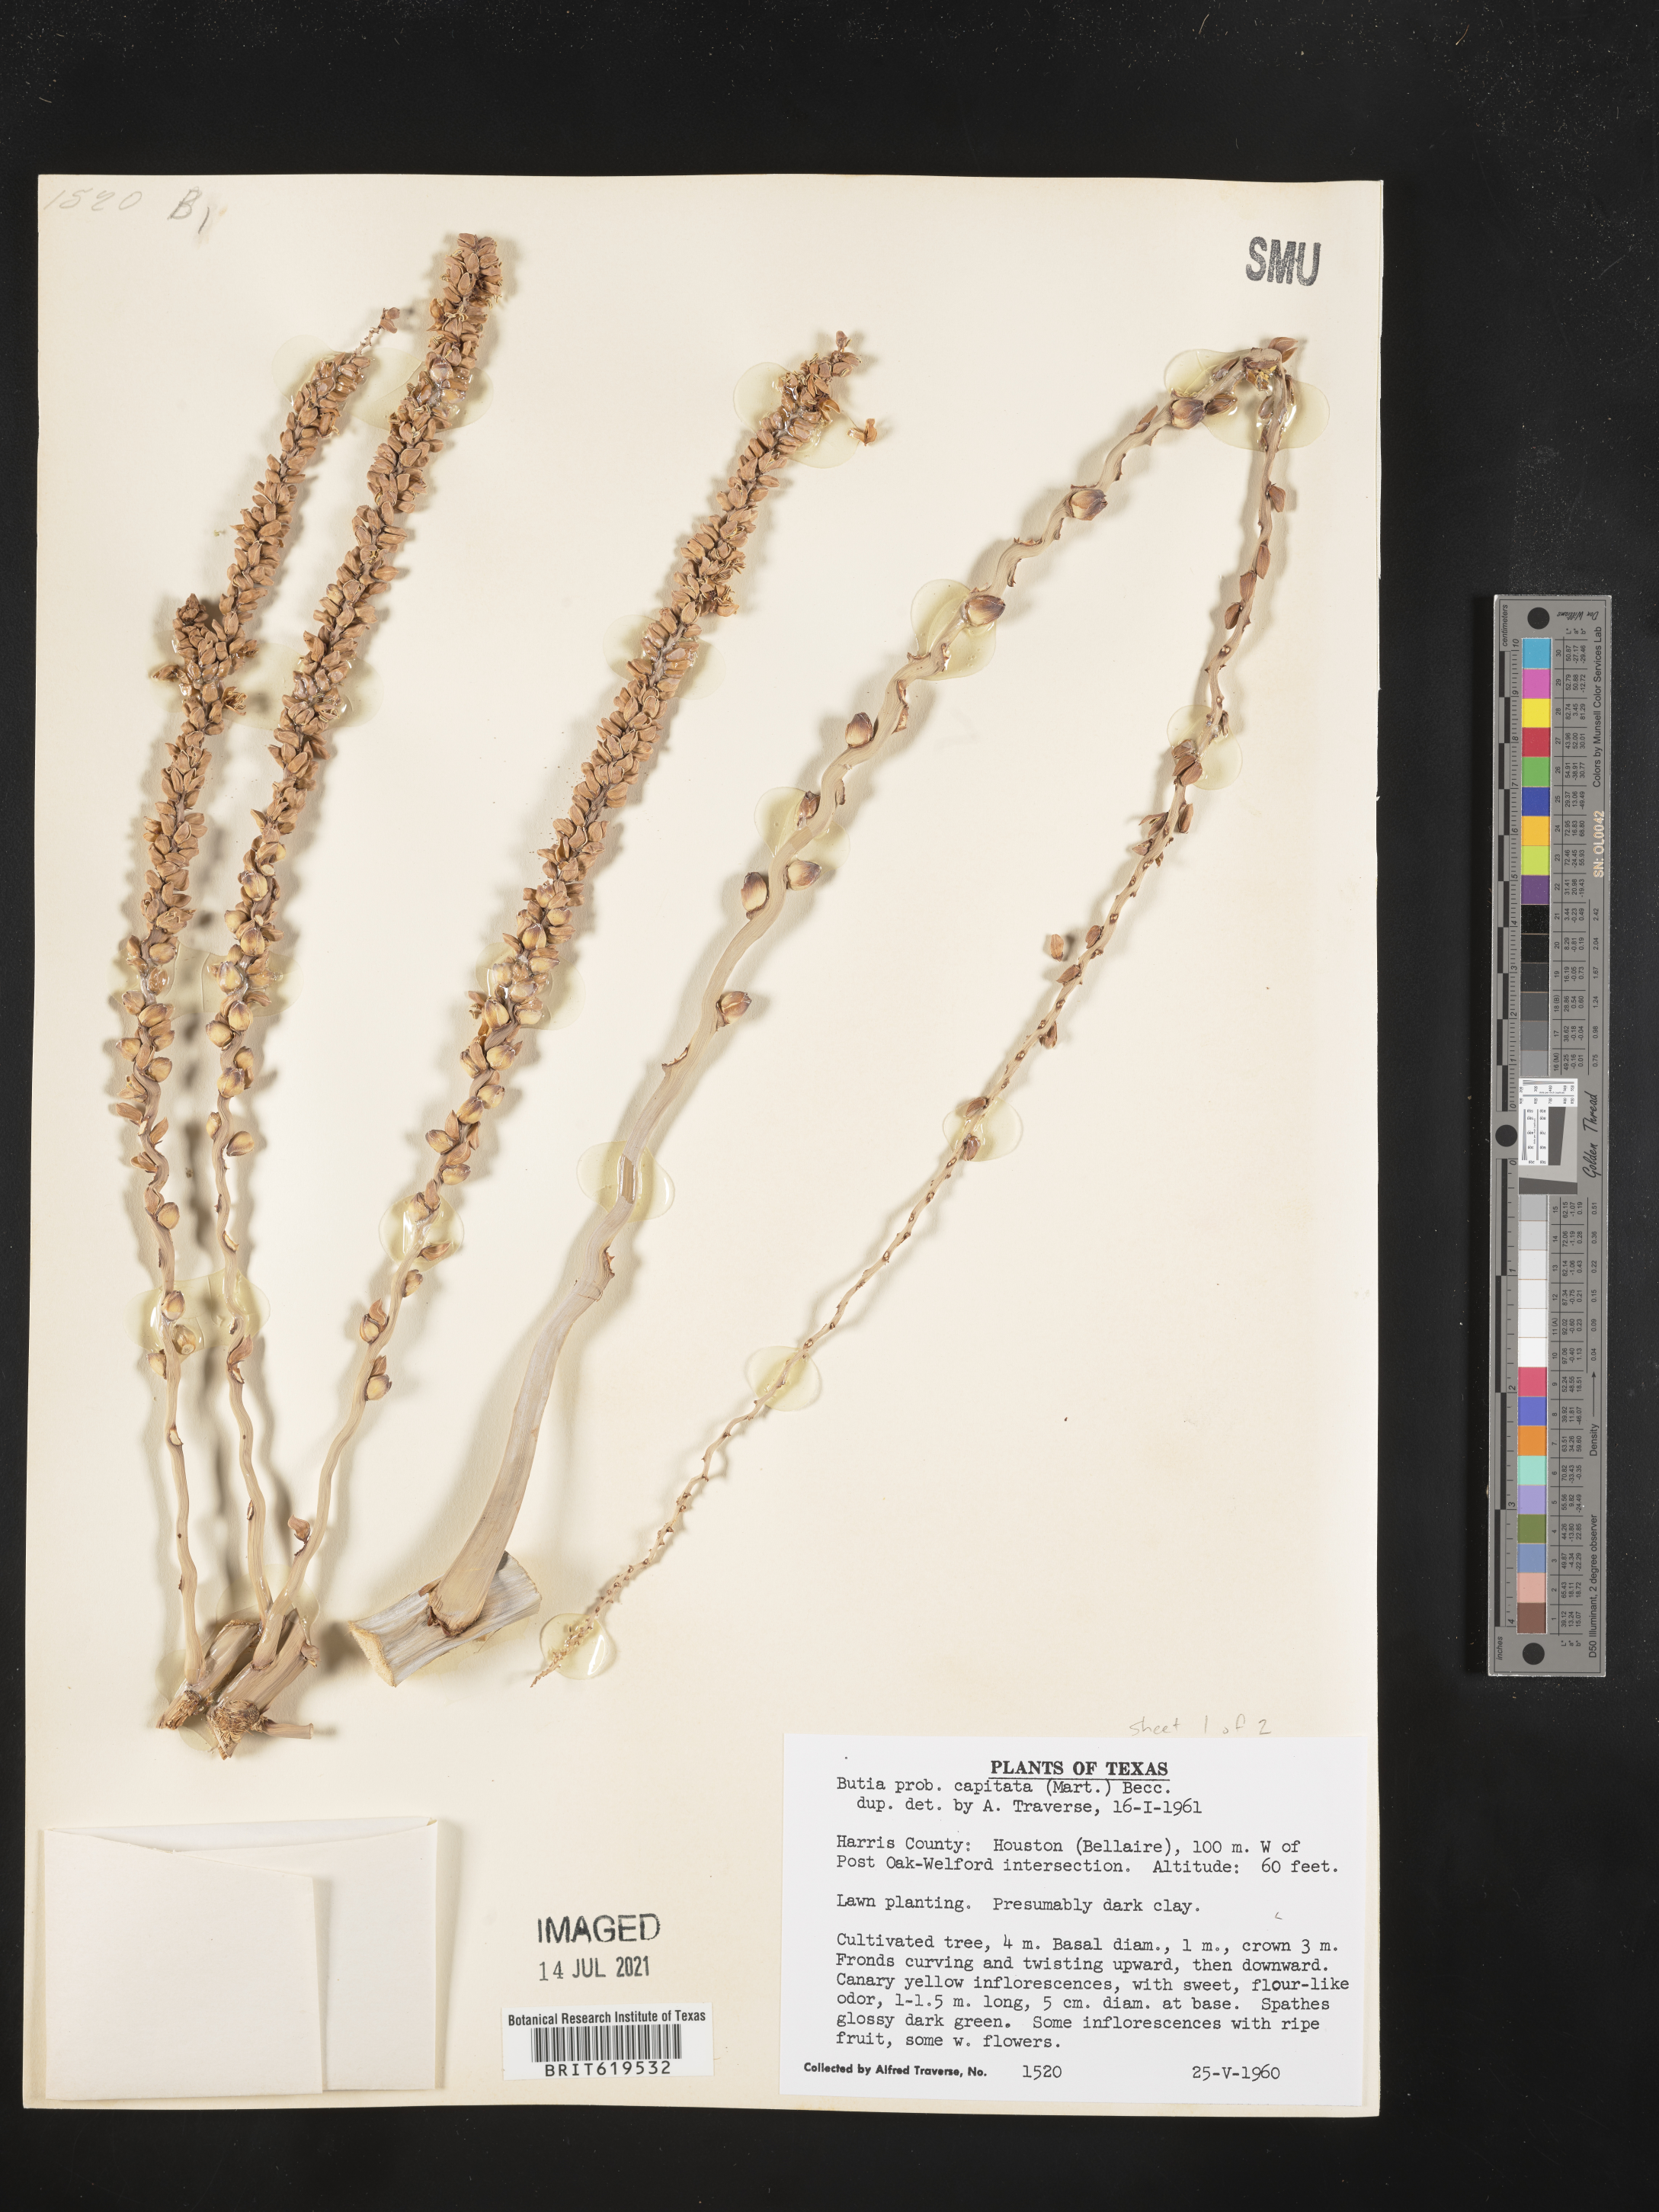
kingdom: Plantae
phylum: Tracheophyta
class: Liliopsida
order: Arecales
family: Arecaceae
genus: Butia
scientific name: Butia
